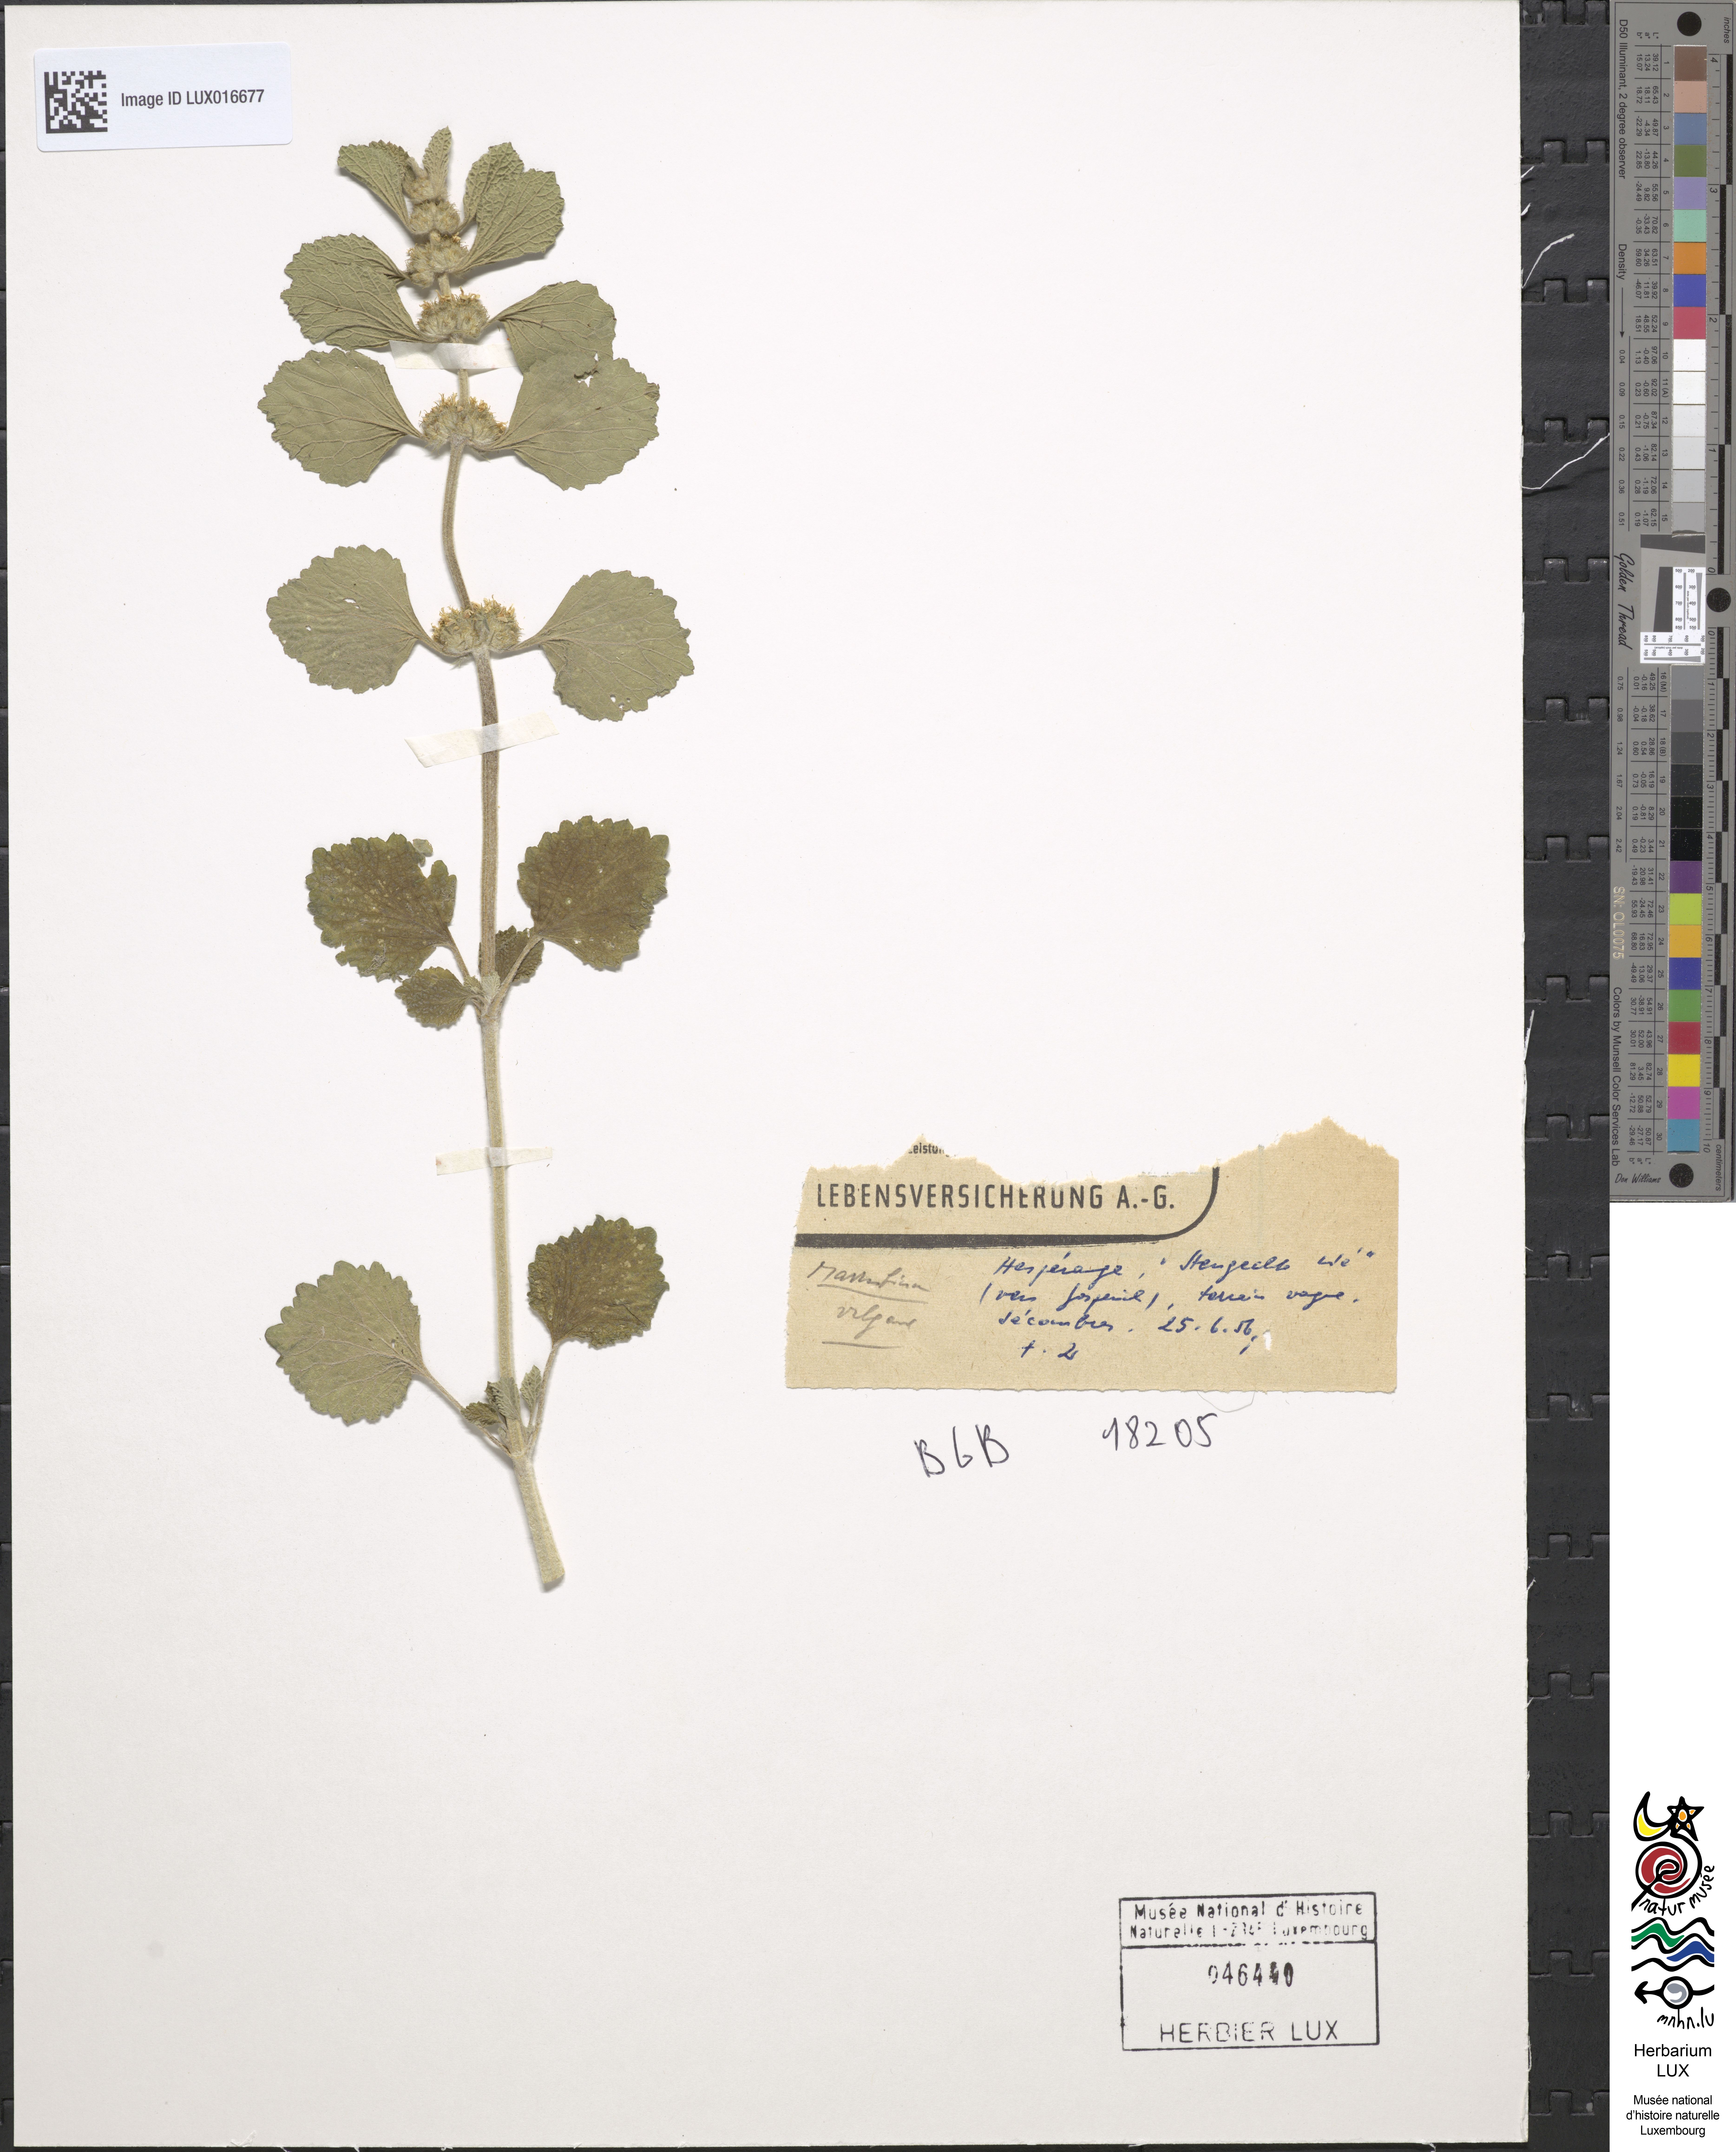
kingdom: Plantae
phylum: Tracheophyta
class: Magnoliopsida
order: Lamiales
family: Lamiaceae
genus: Marrubium
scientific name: Marrubium vulgare
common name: Horehound
